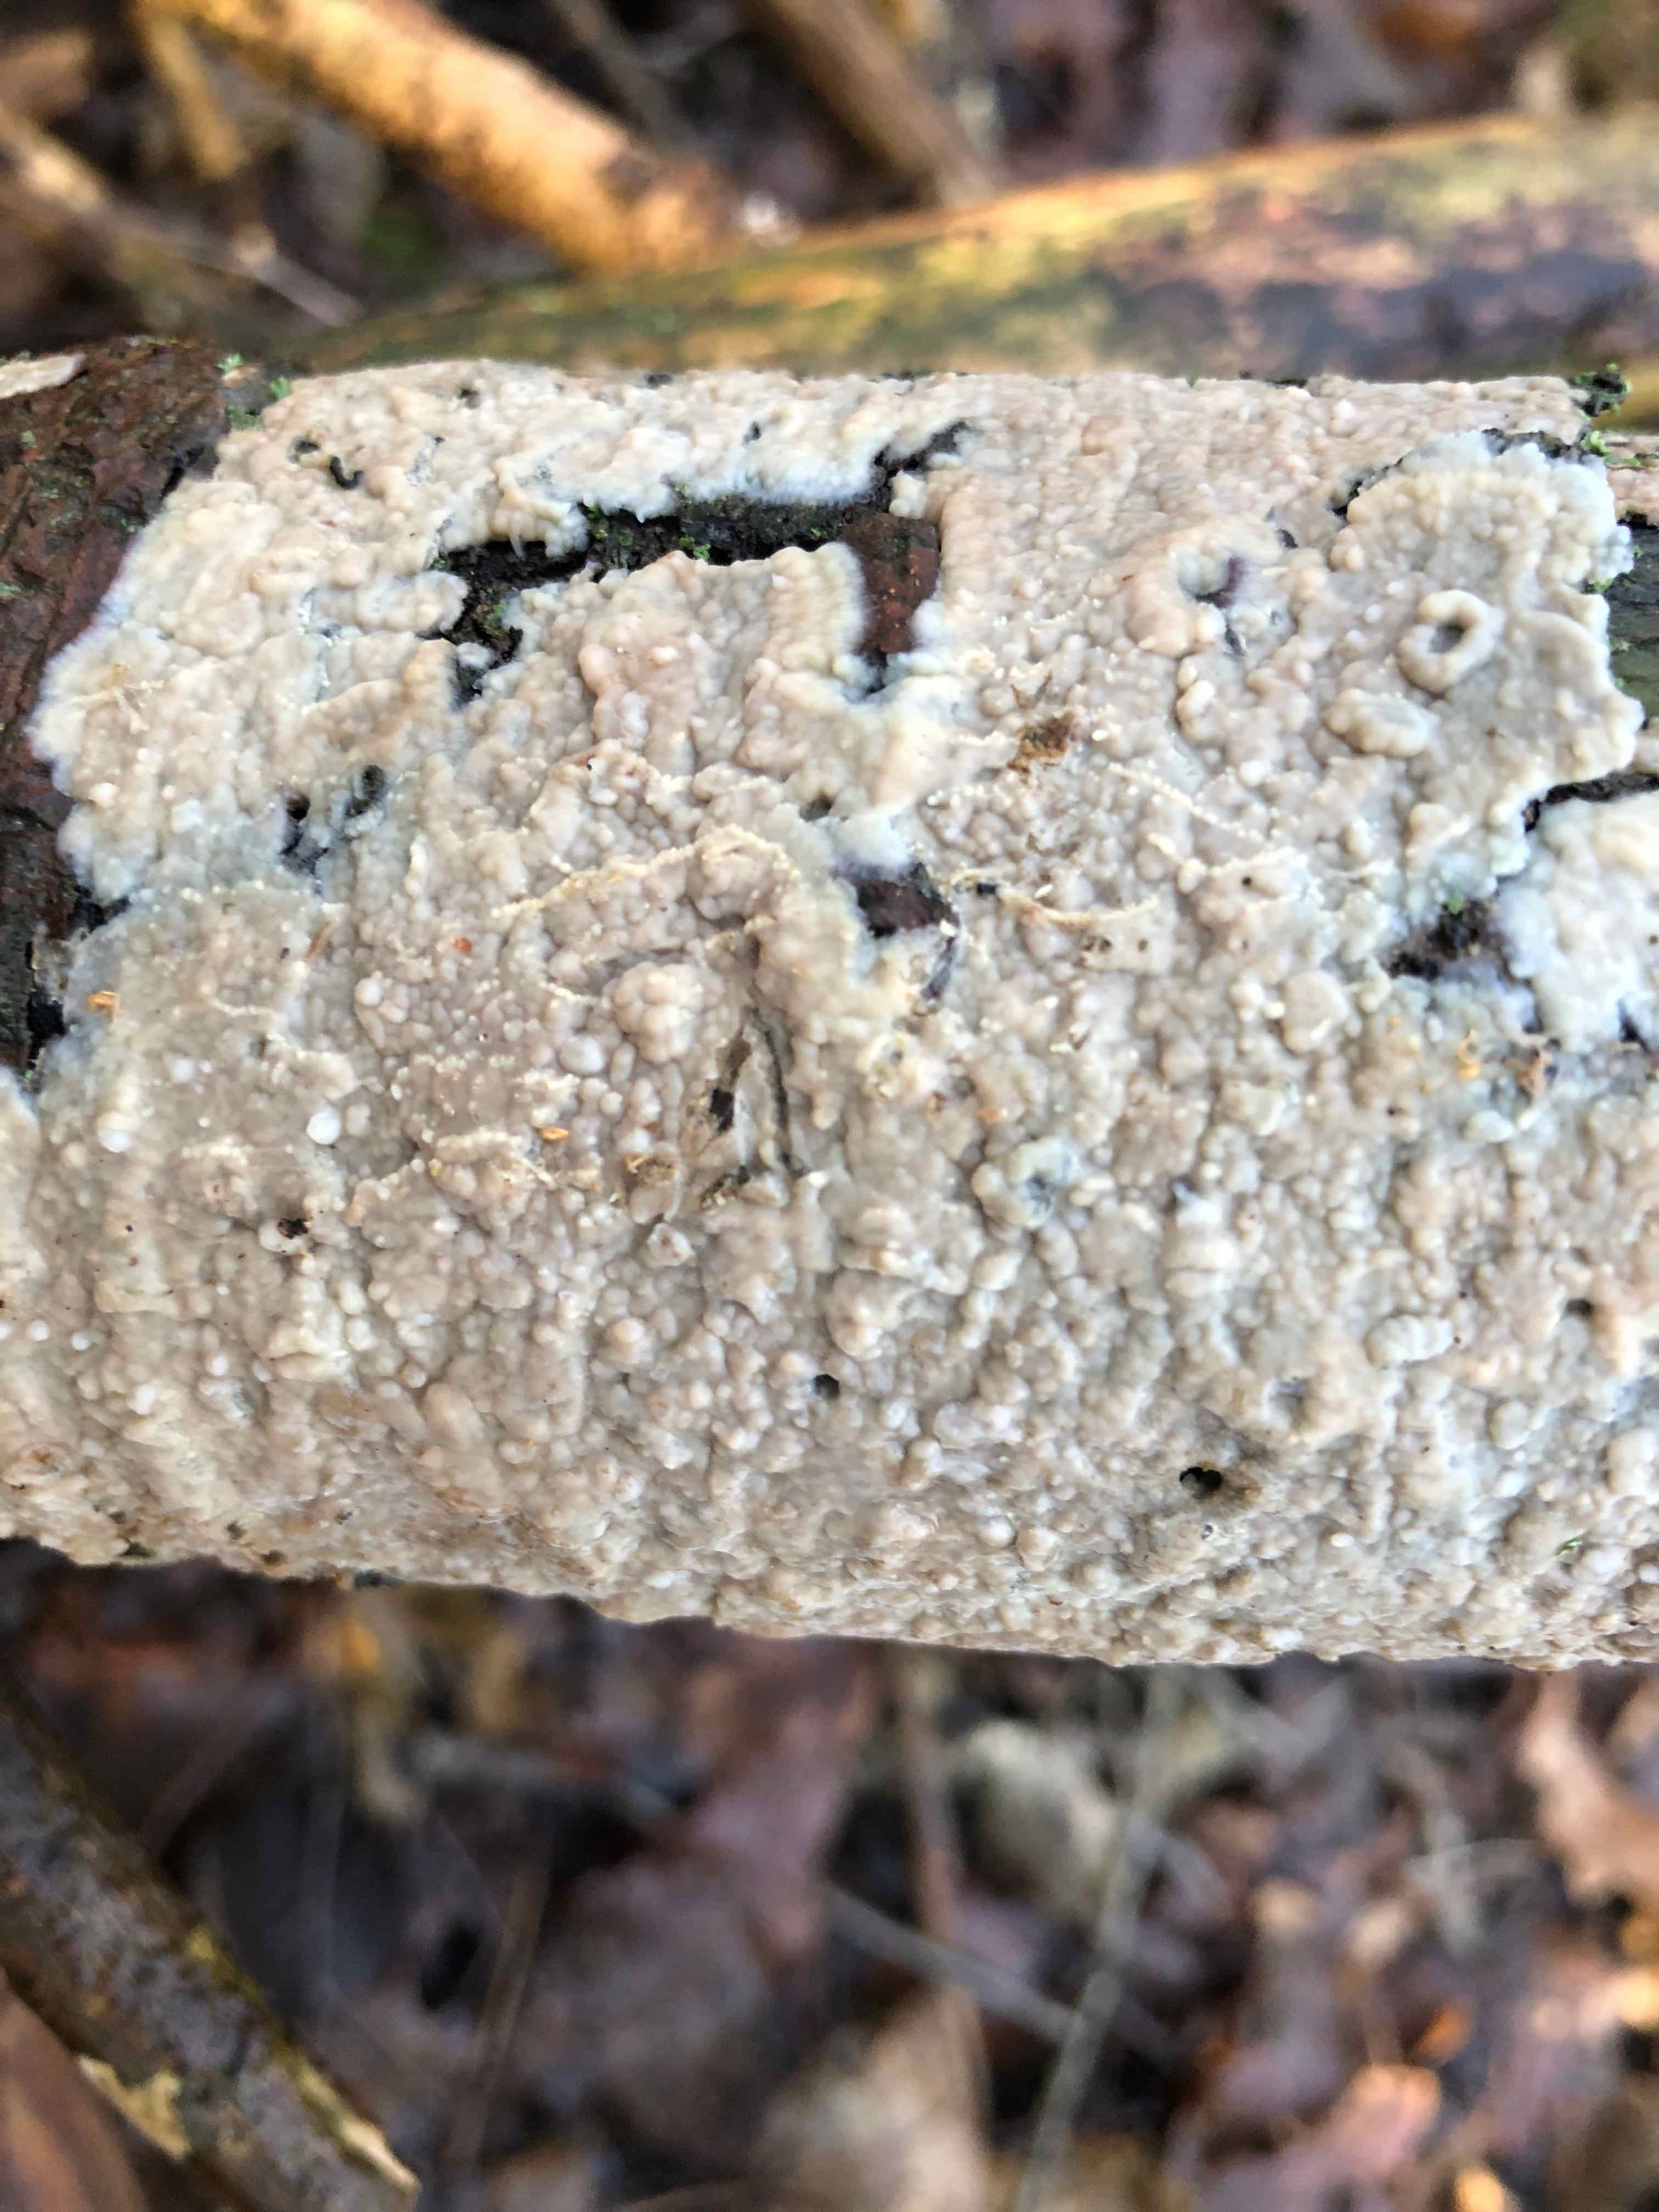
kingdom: Fungi
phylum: Basidiomycota
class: Agaricomycetes
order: Agaricales
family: Radulomycetaceae
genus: Radulomyces
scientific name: Radulomyces confluens
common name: glat naftalinskind
